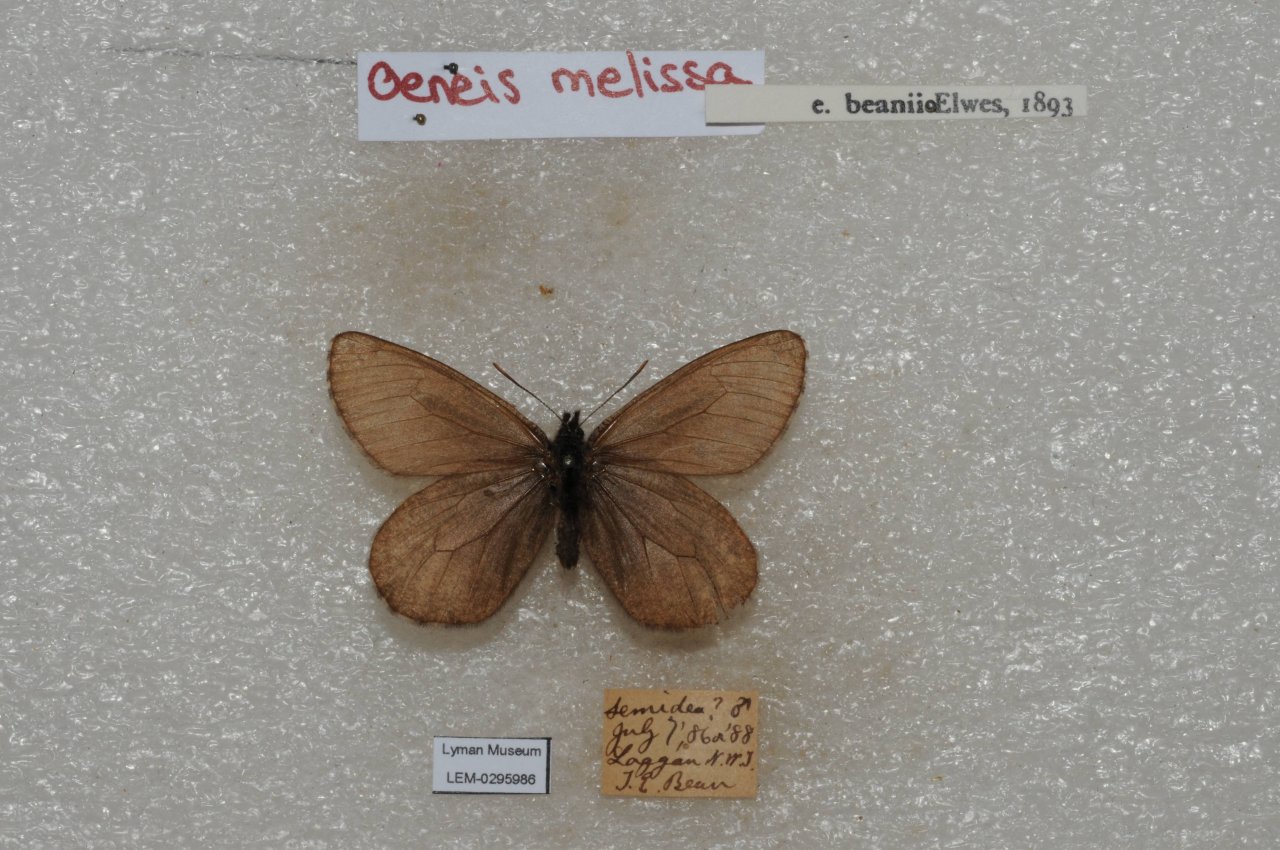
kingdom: Animalia
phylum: Arthropoda
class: Insecta
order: Lepidoptera
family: Nymphalidae
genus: Oeneis
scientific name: Oeneis melissa
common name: Melissa Arctic
